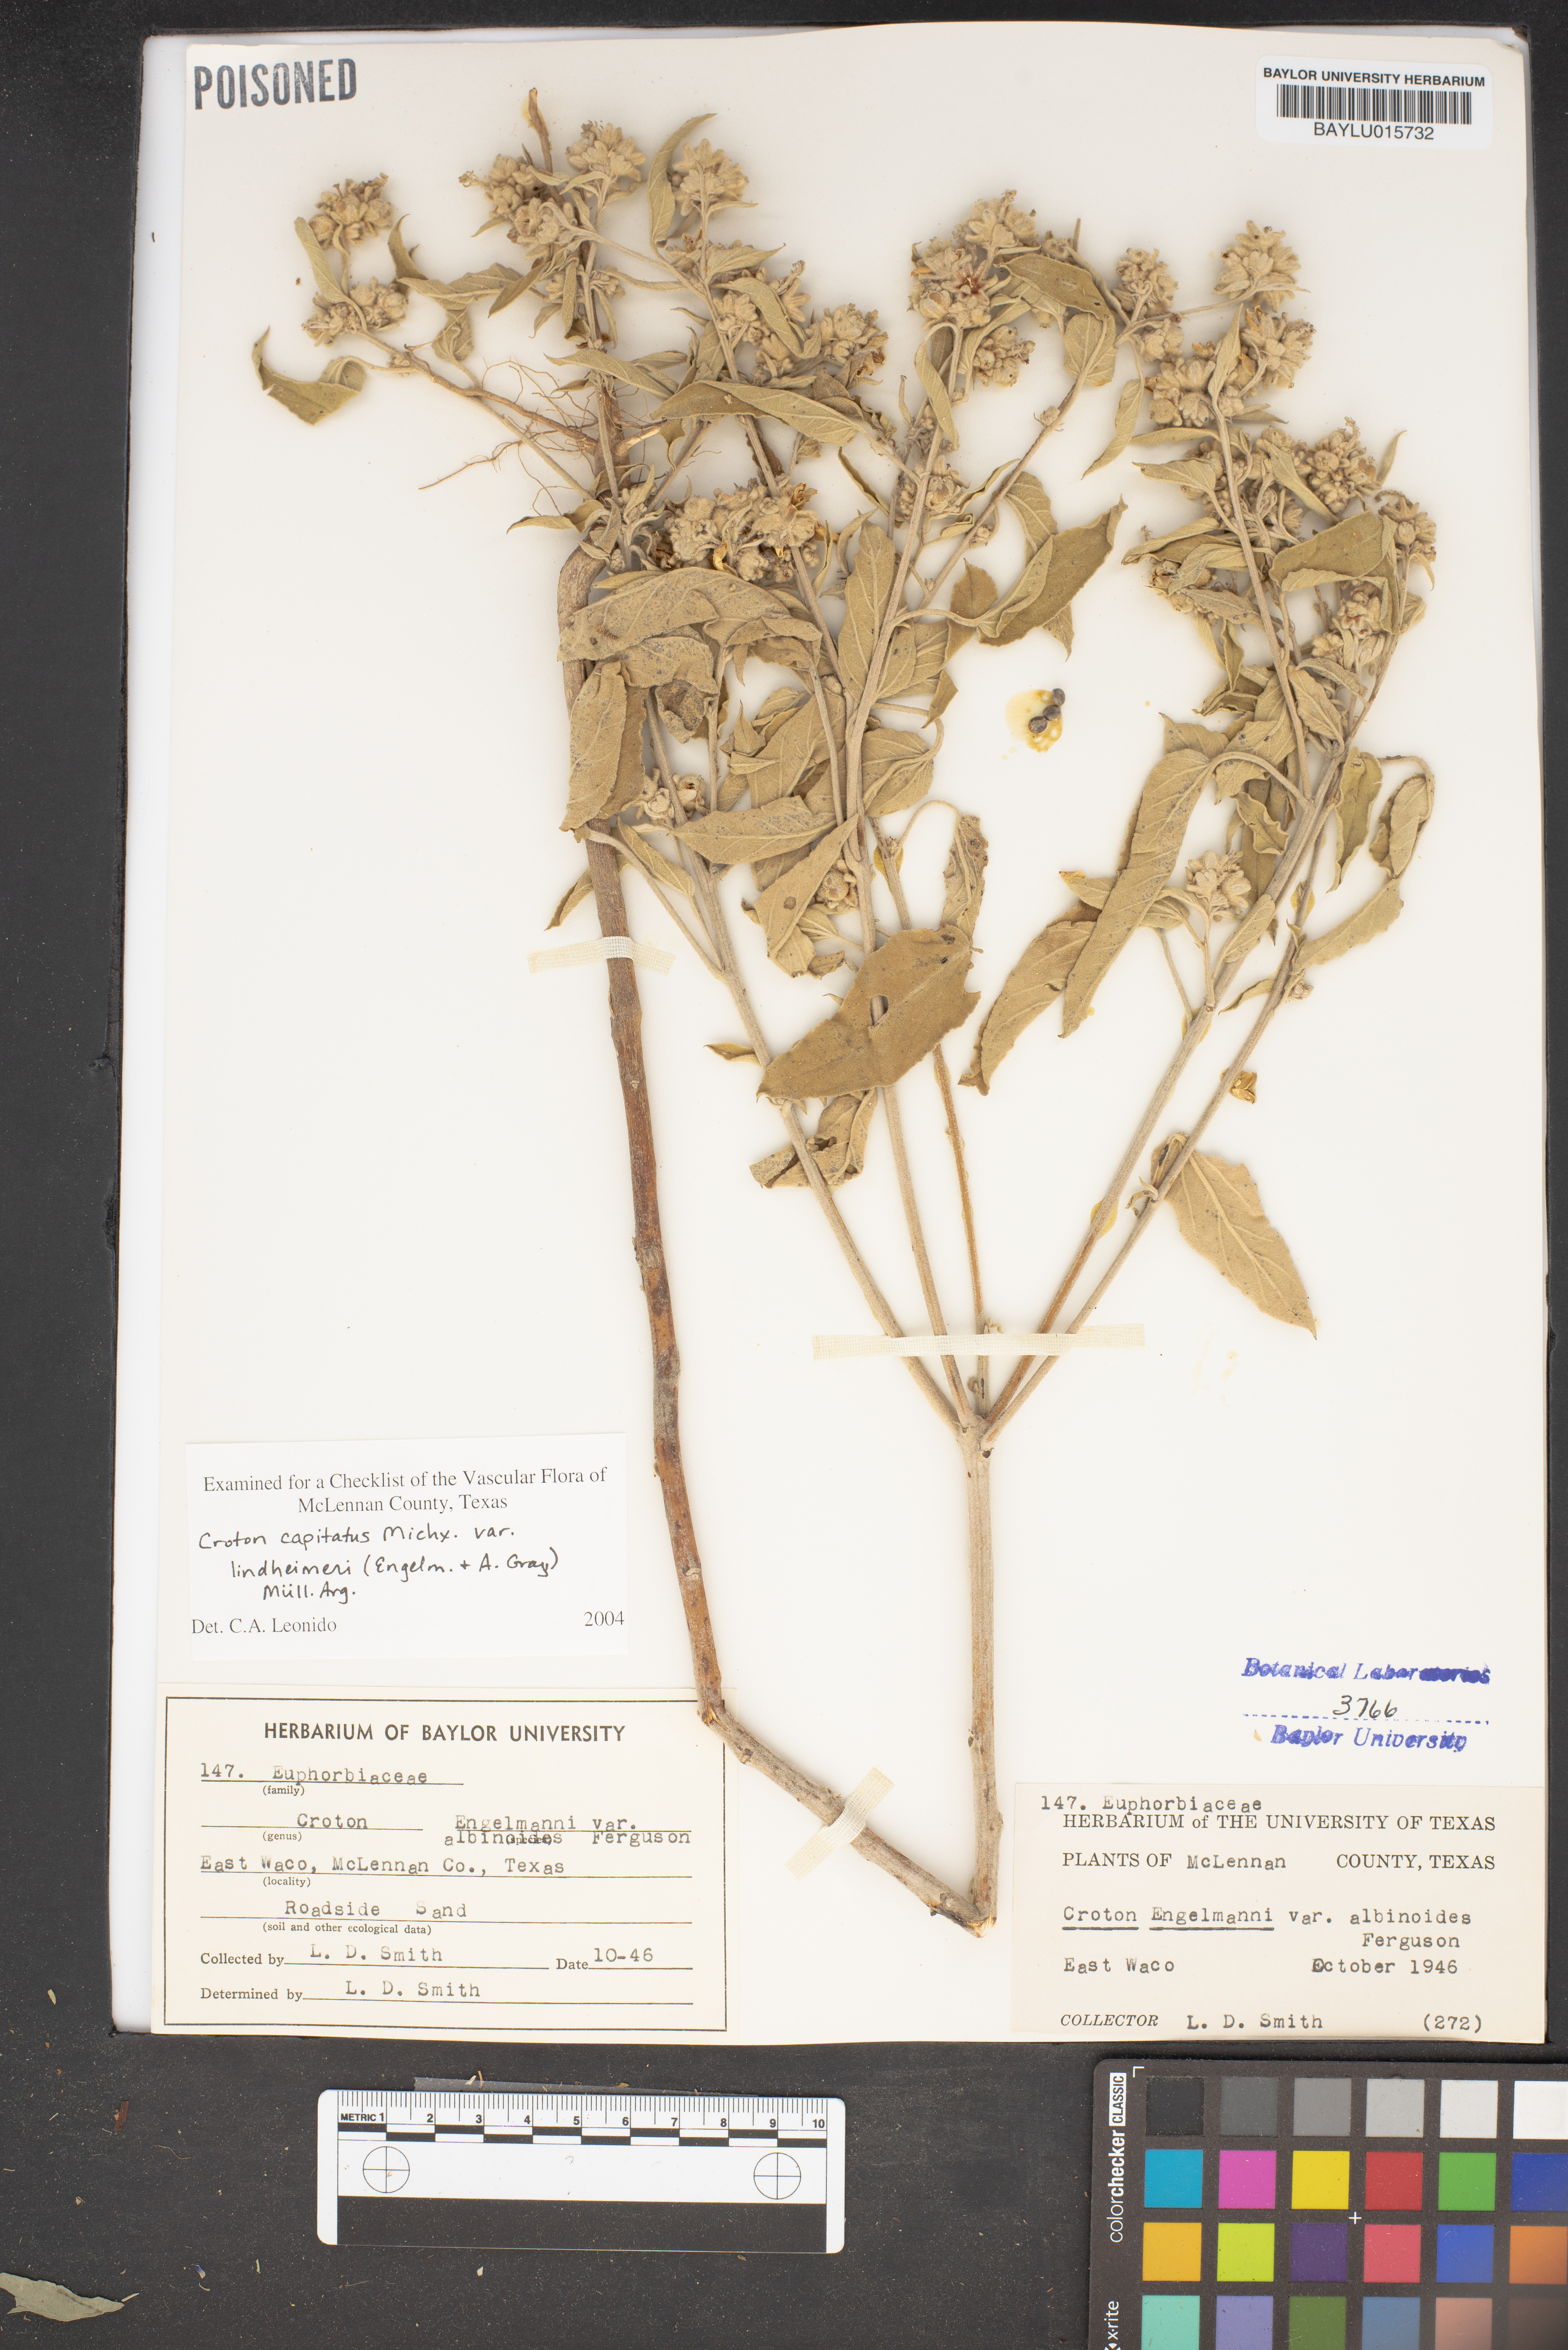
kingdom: Plantae
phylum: Tracheophyta
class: Magnoliopsida
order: Malpighiales
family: Euphorbiaceae
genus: Croton
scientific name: Croton lindheimeri
